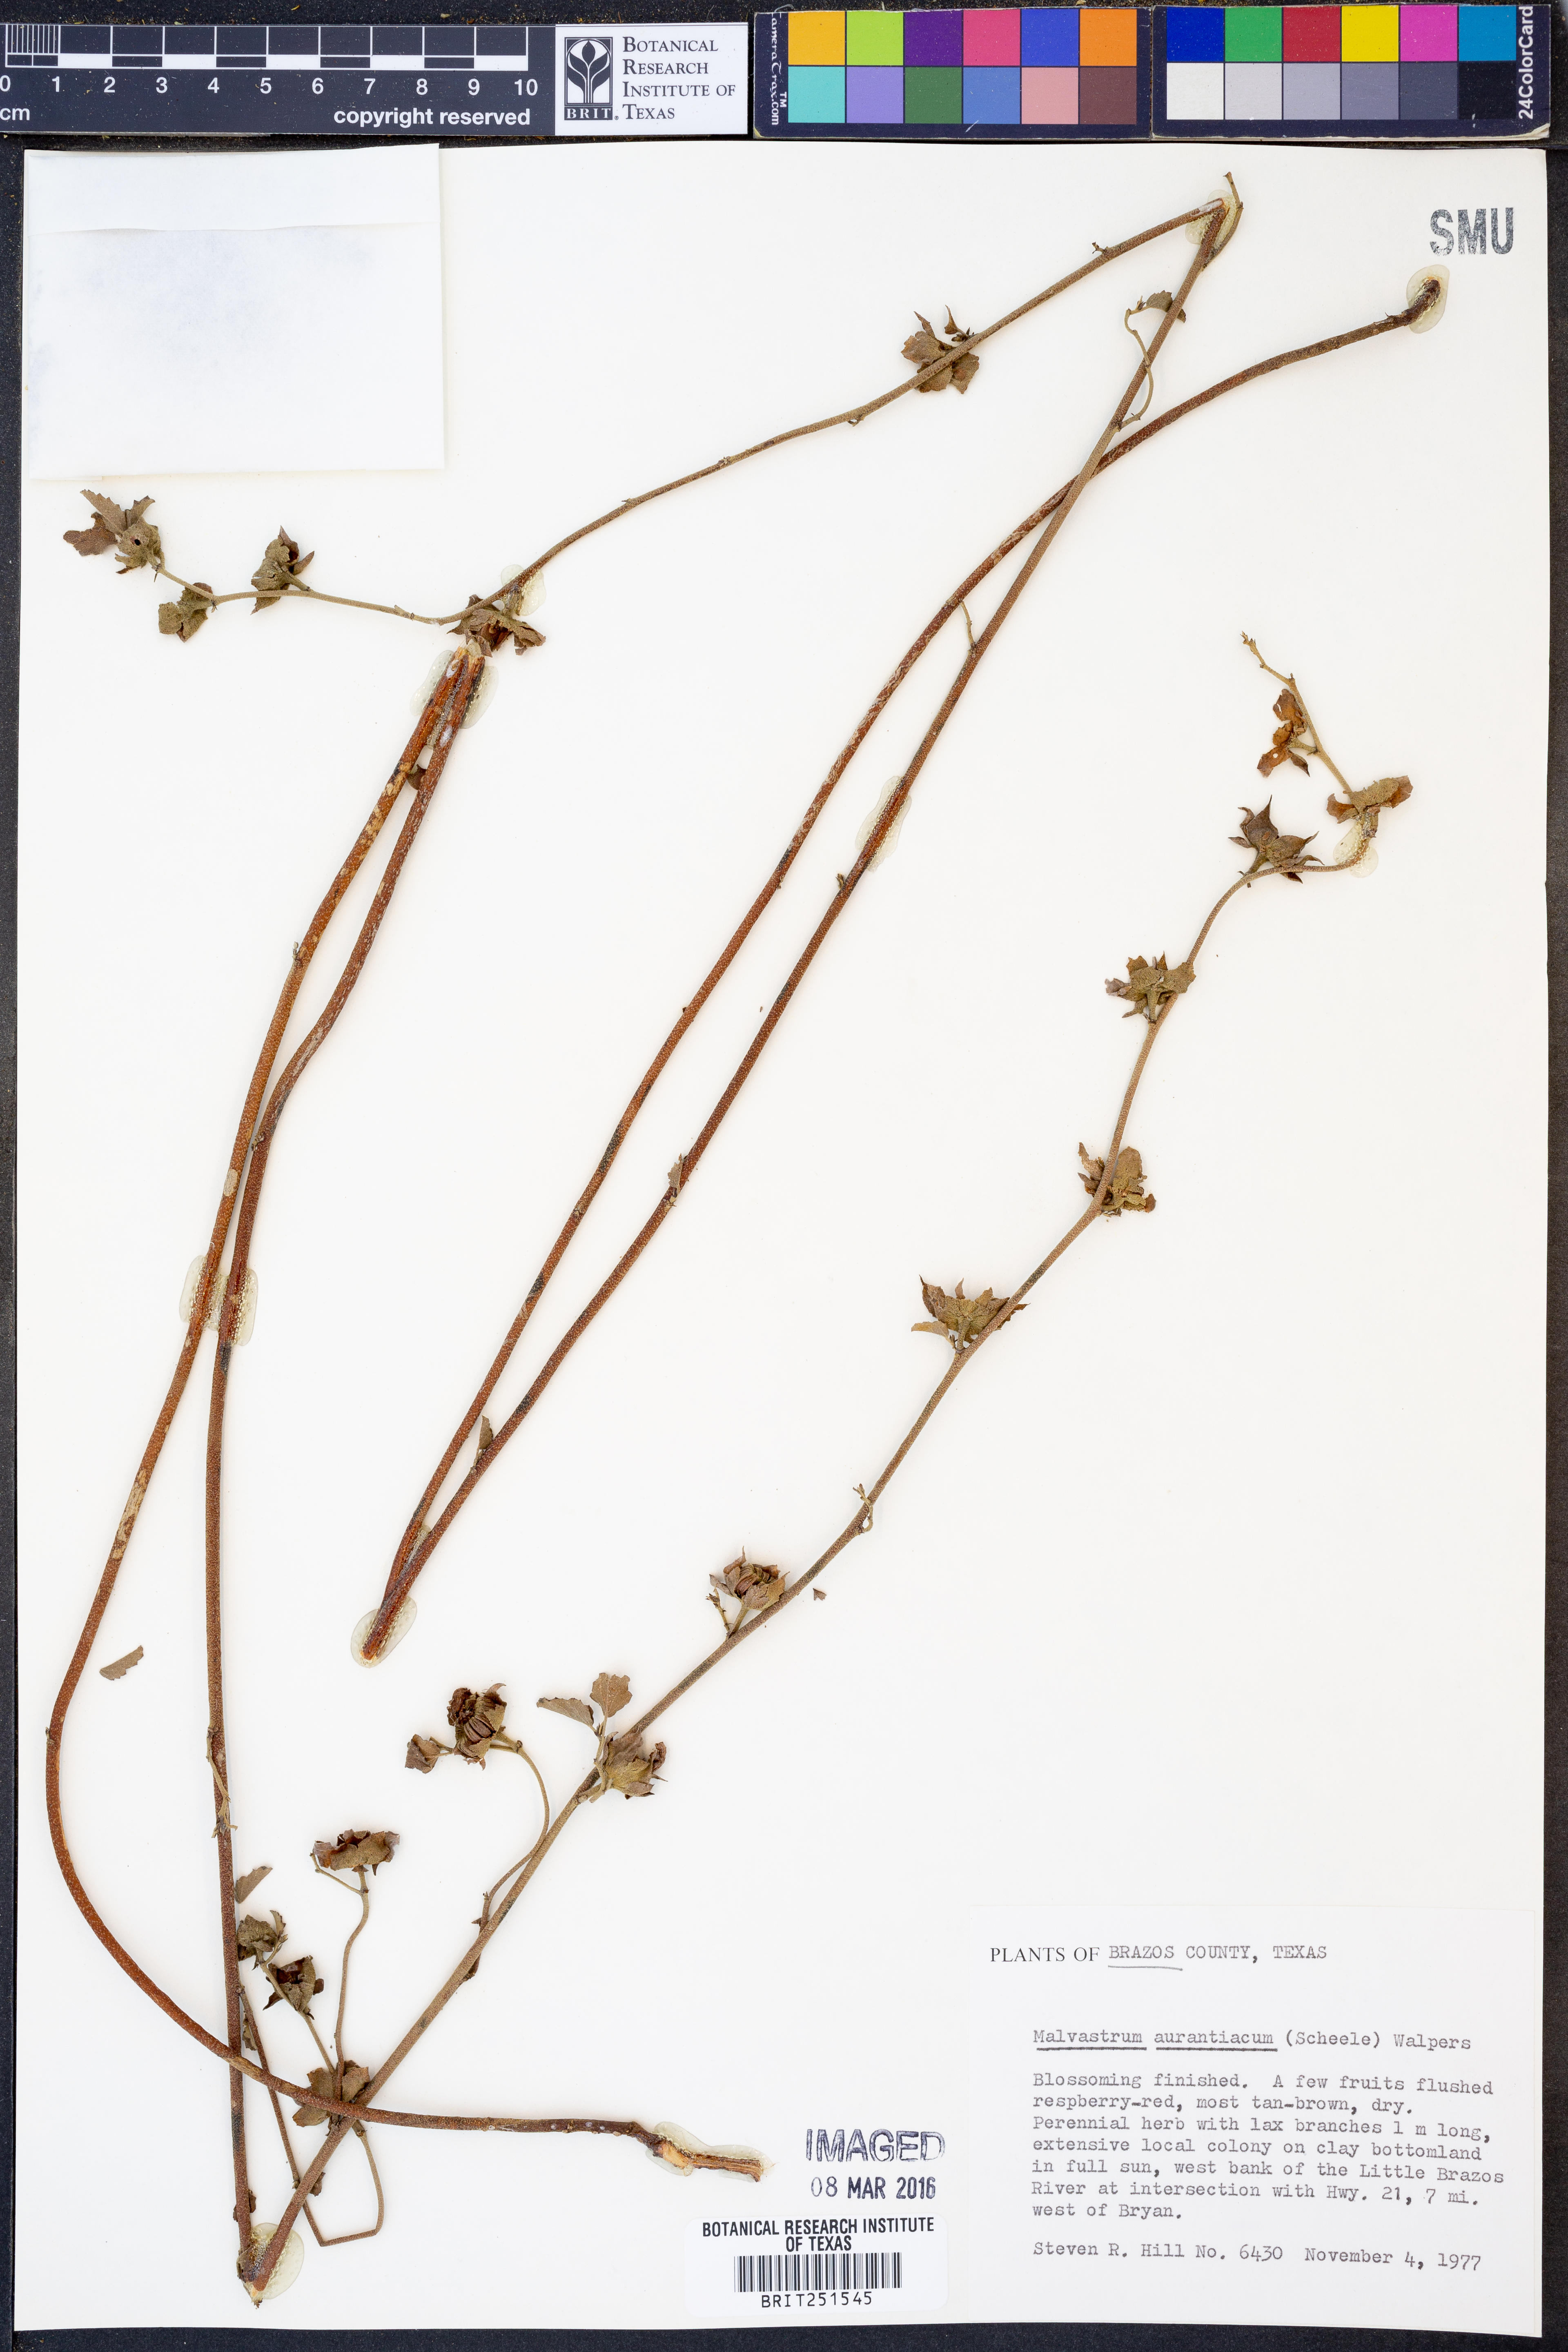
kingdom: Plantae
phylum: Tracheophyta
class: Magnoliopsida
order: Malvales
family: Malvaceae
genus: Malvastrum
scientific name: Malvastrum aurantiacum
